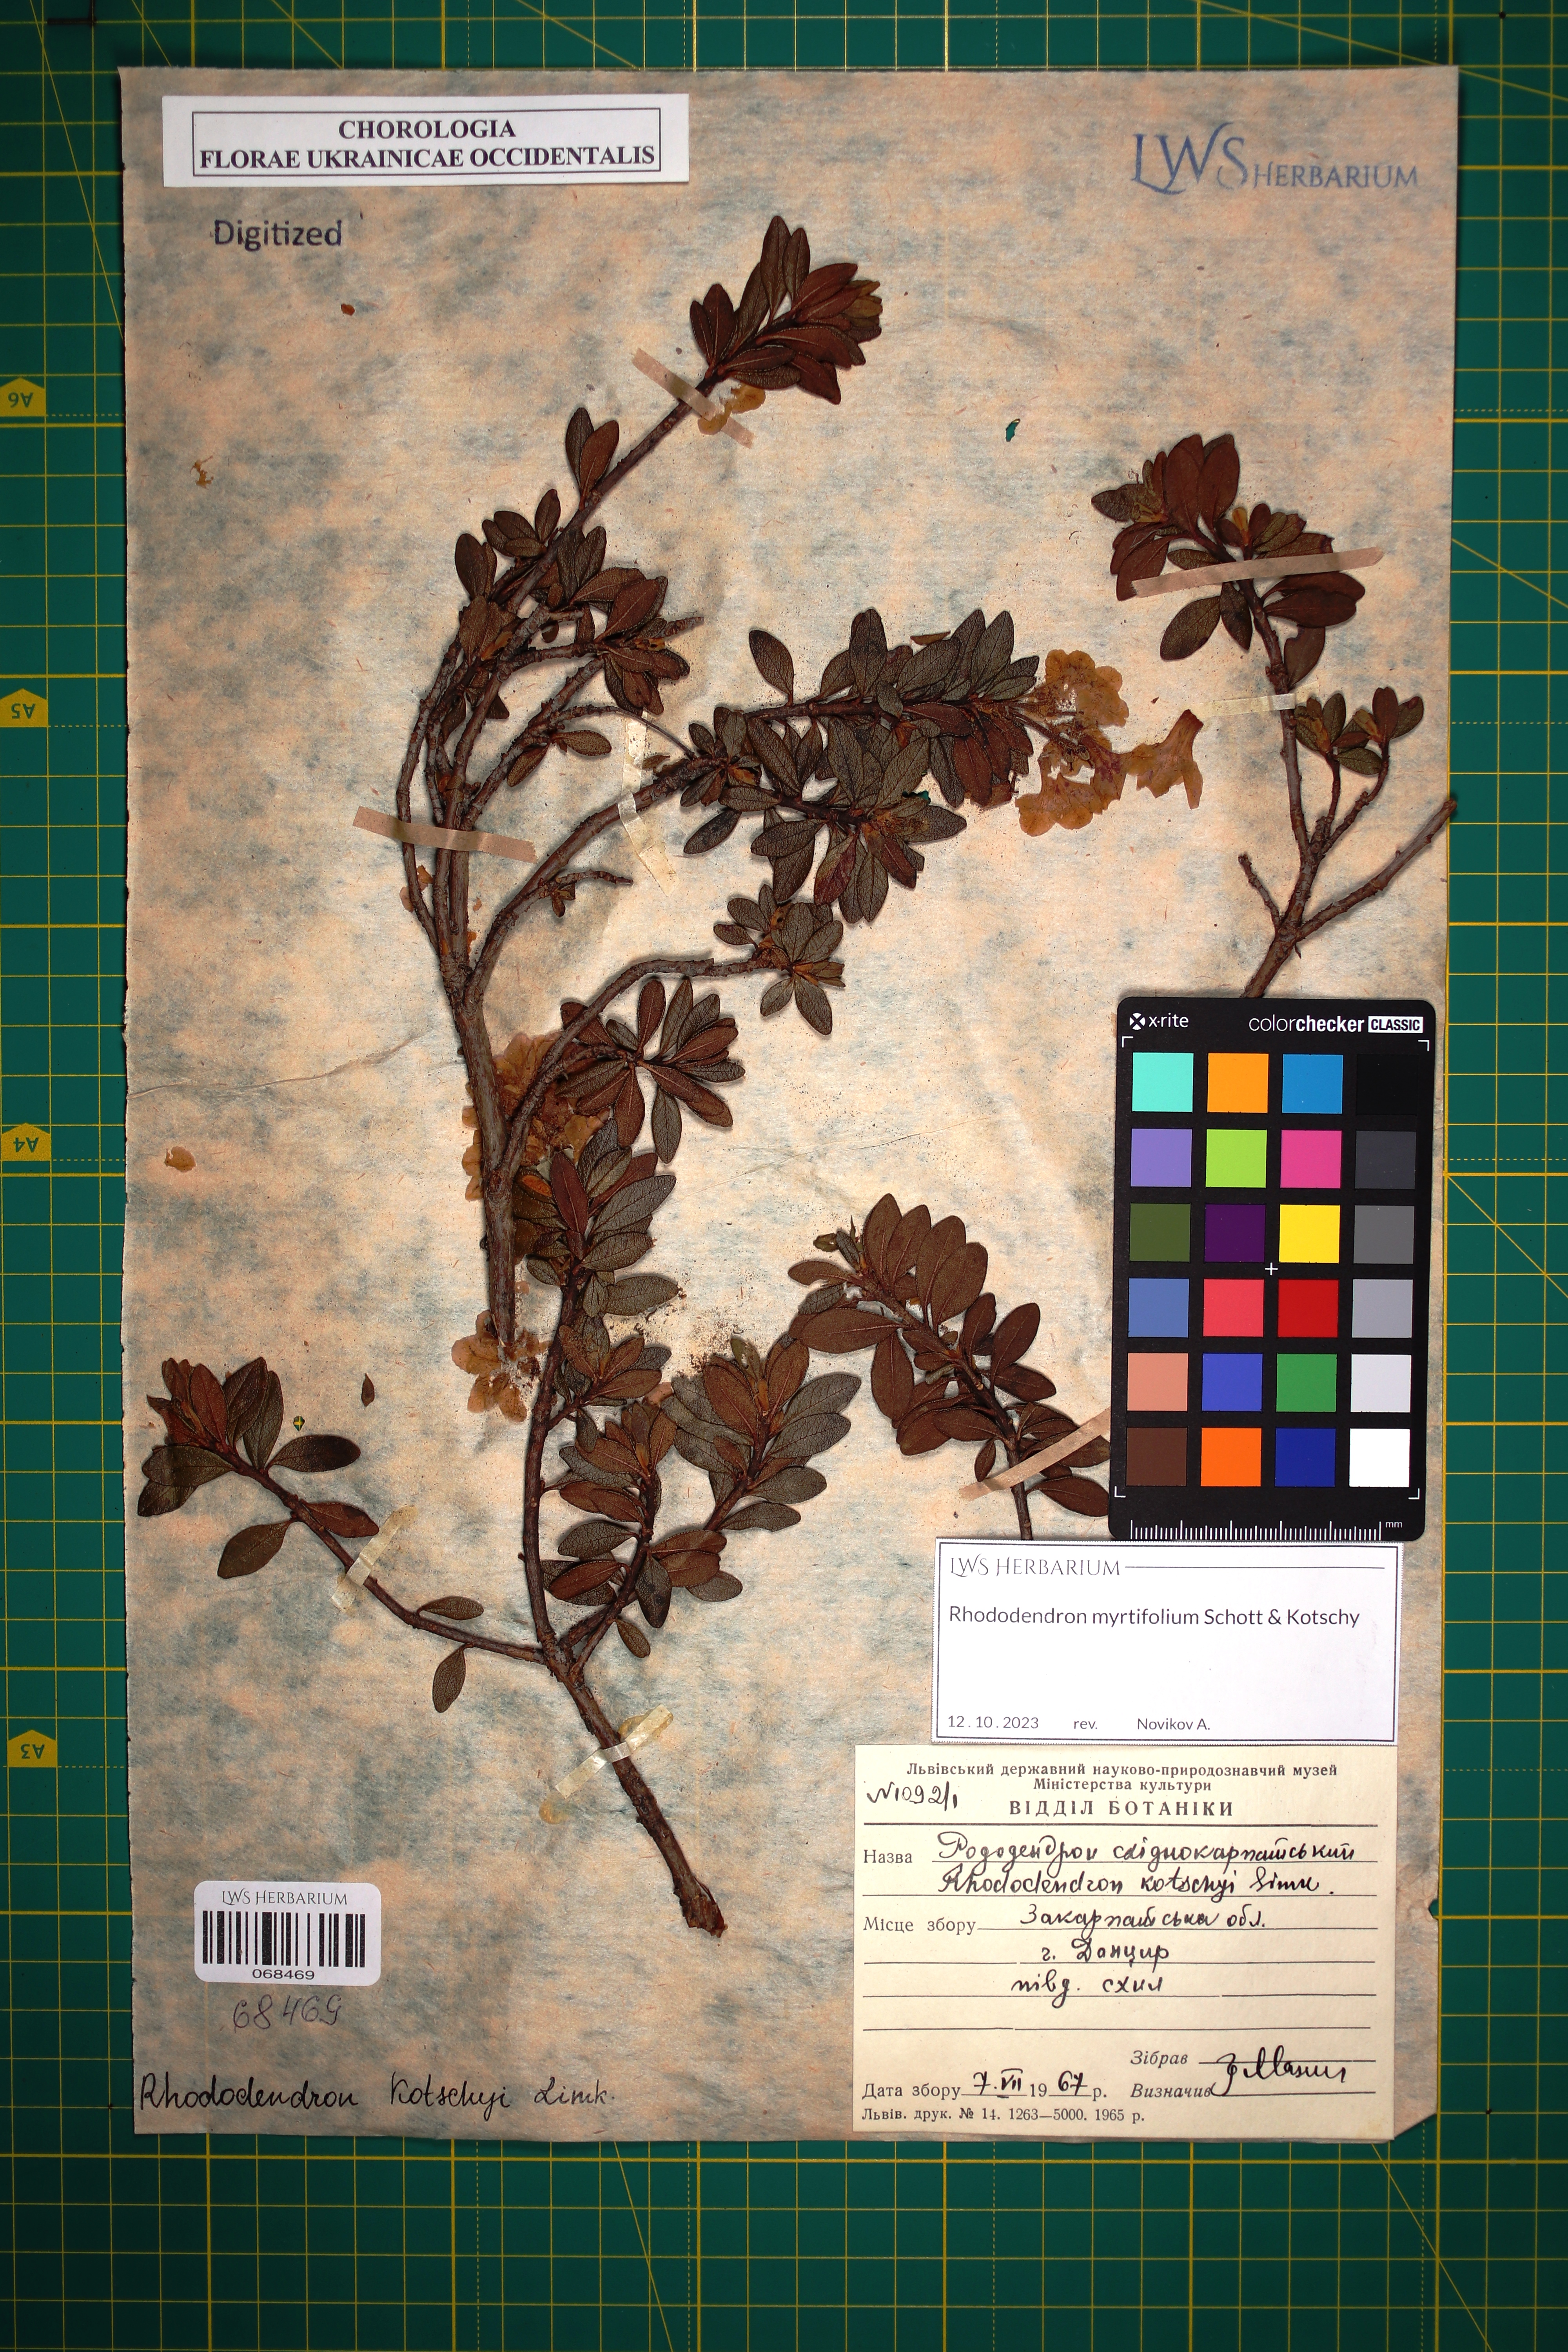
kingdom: Plantae
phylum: Tracheophyta
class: Magnoliopsida
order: Ericales
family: Ericaceae
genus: Rhododendron
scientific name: Rhododendron kotschyi
